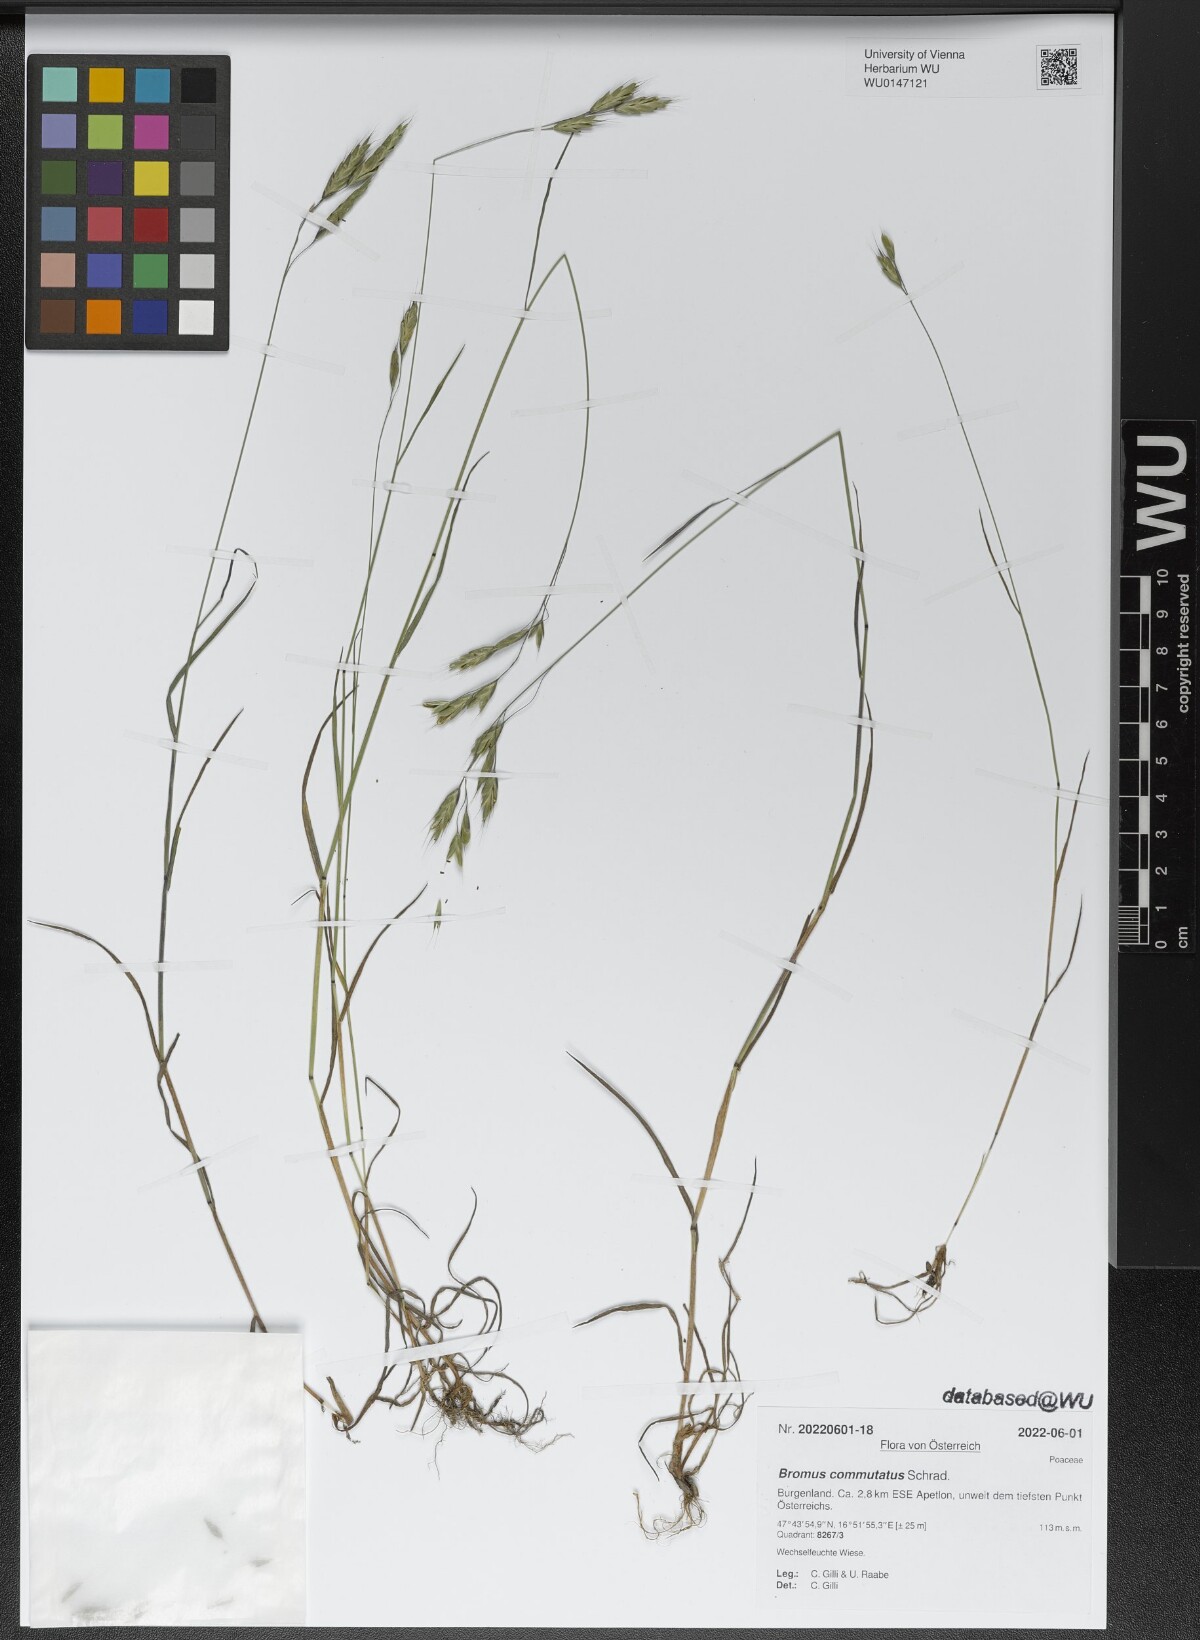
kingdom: Plantae
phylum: Tracheophyta
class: Liliopsida
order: Poales
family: Poaceae
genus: Bromus
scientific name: Bromus commutatus
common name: Meadow brome
